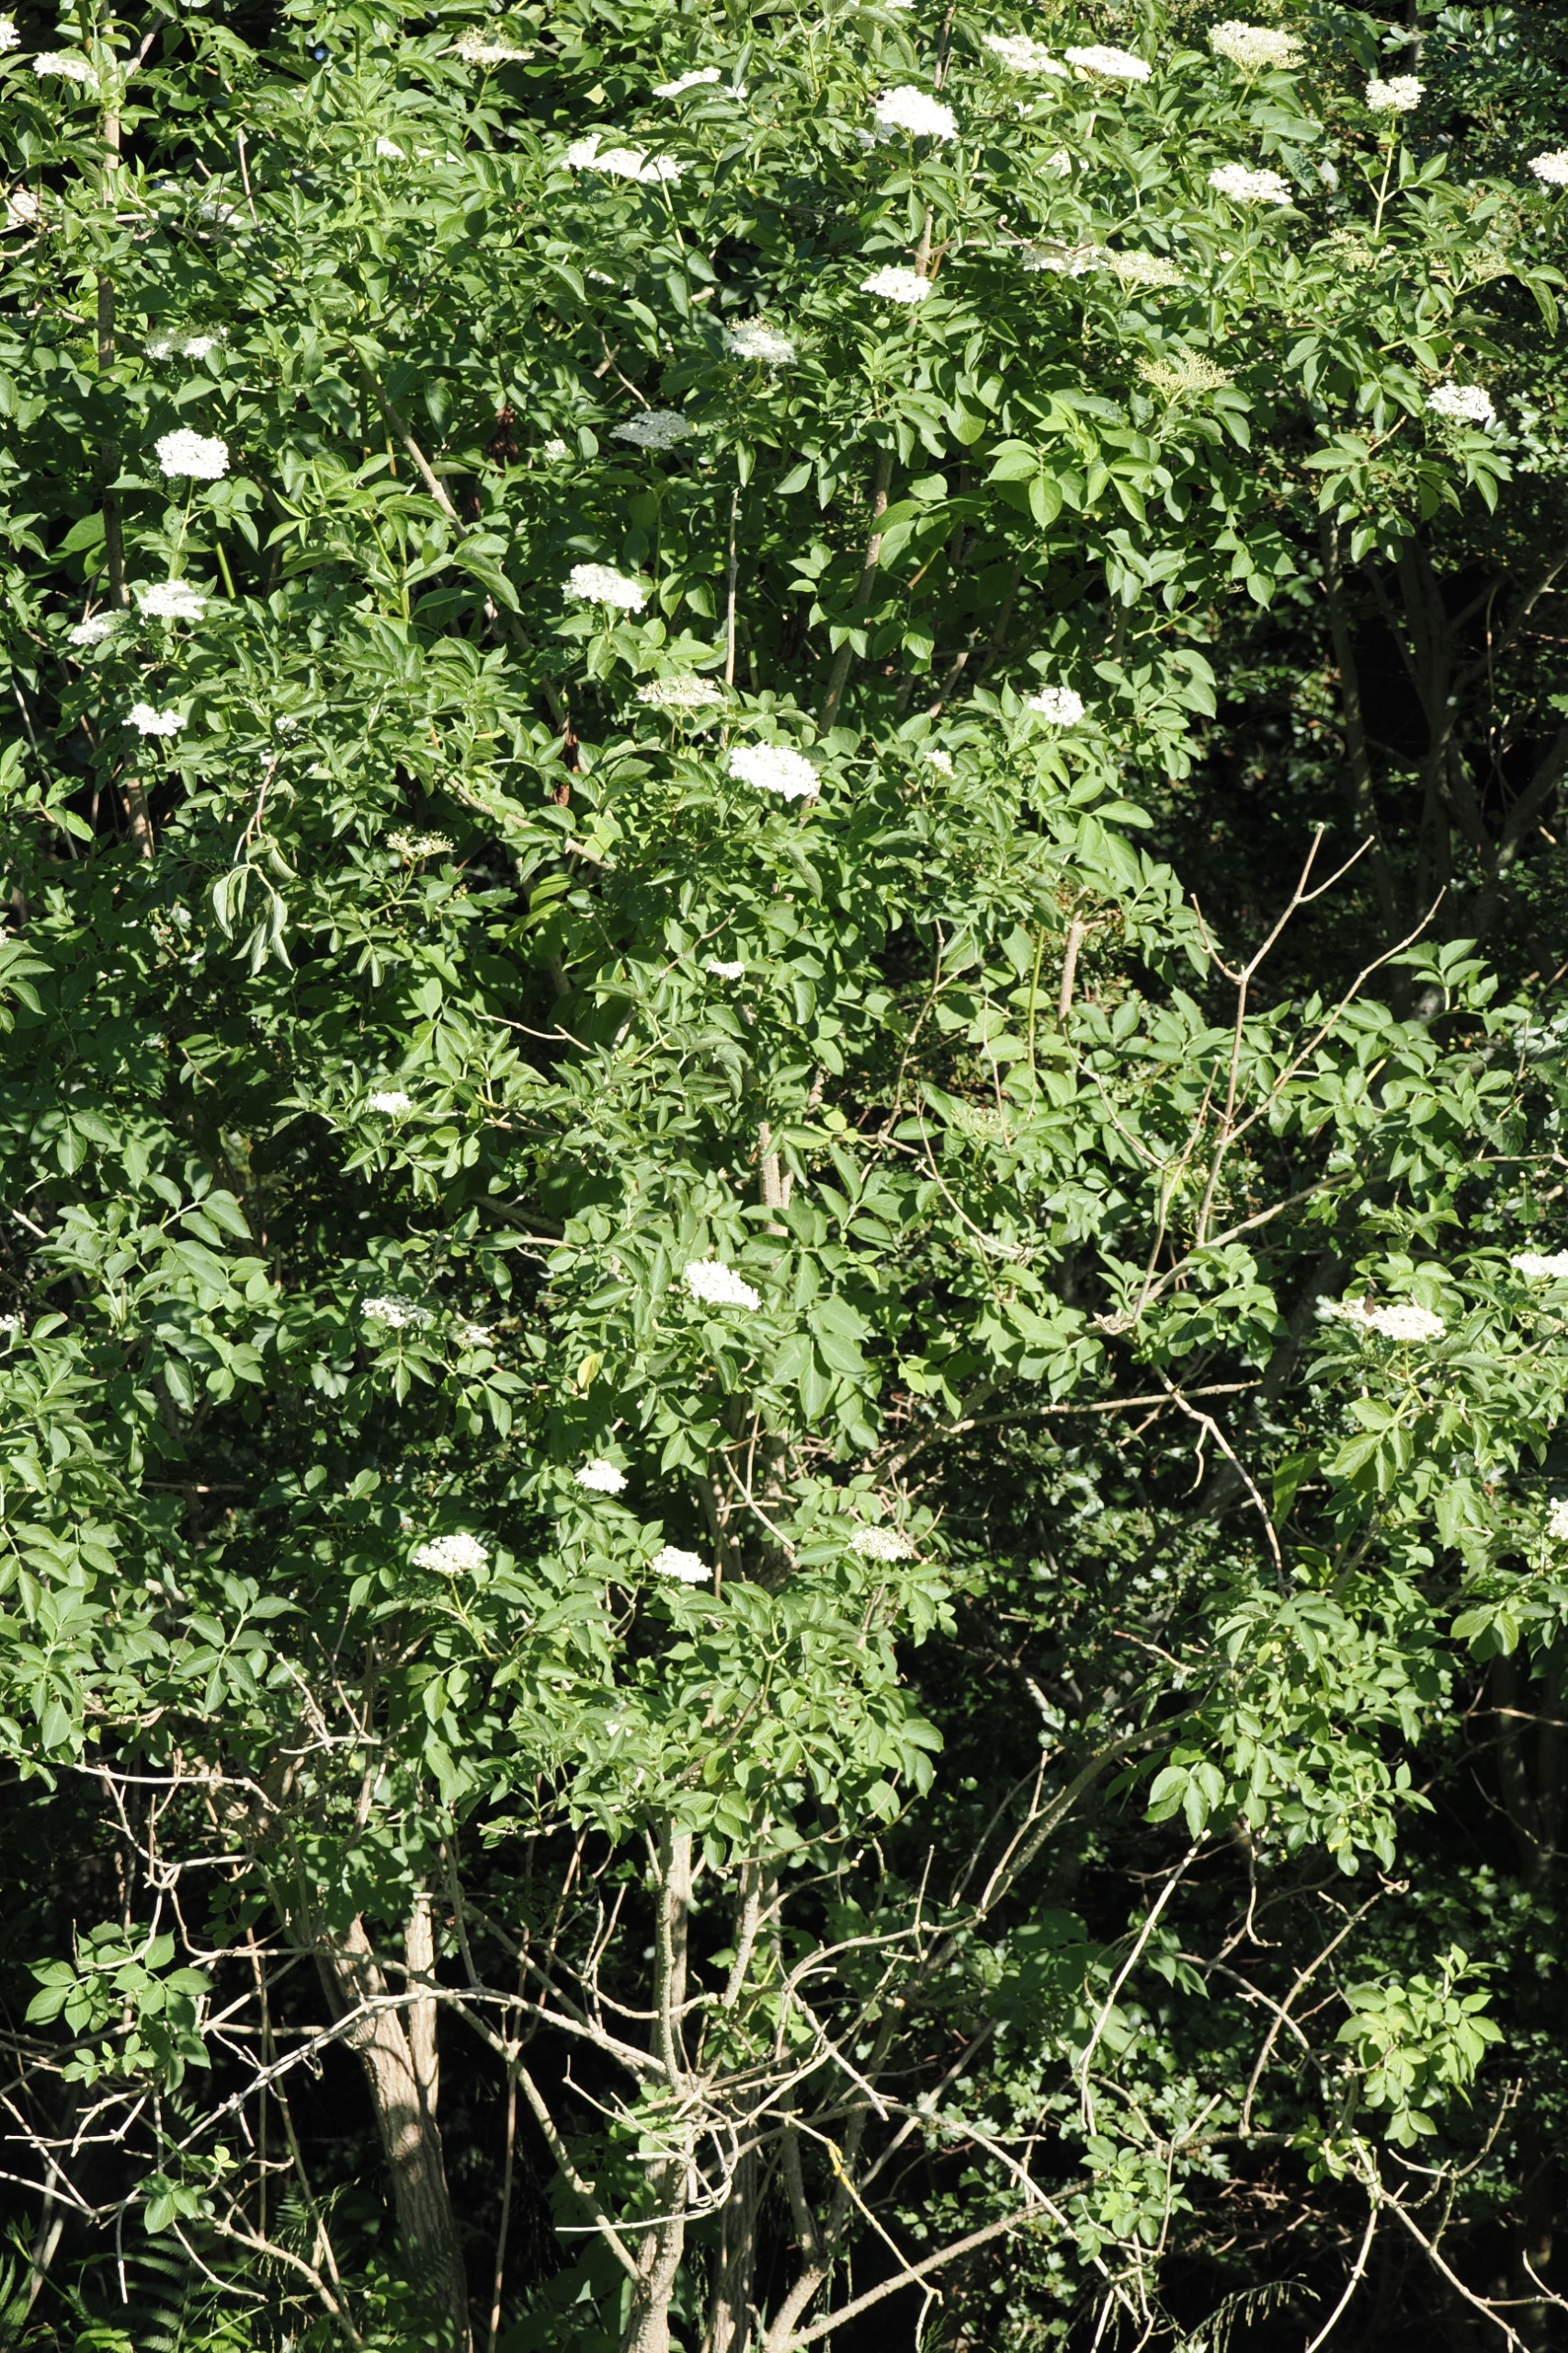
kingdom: Plantae
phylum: Tracheophyta
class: Magnoliopsida
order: Dipsacales
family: Viburnaceae
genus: Sambucus
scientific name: Sambucus nigra
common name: Almindelig hyld
